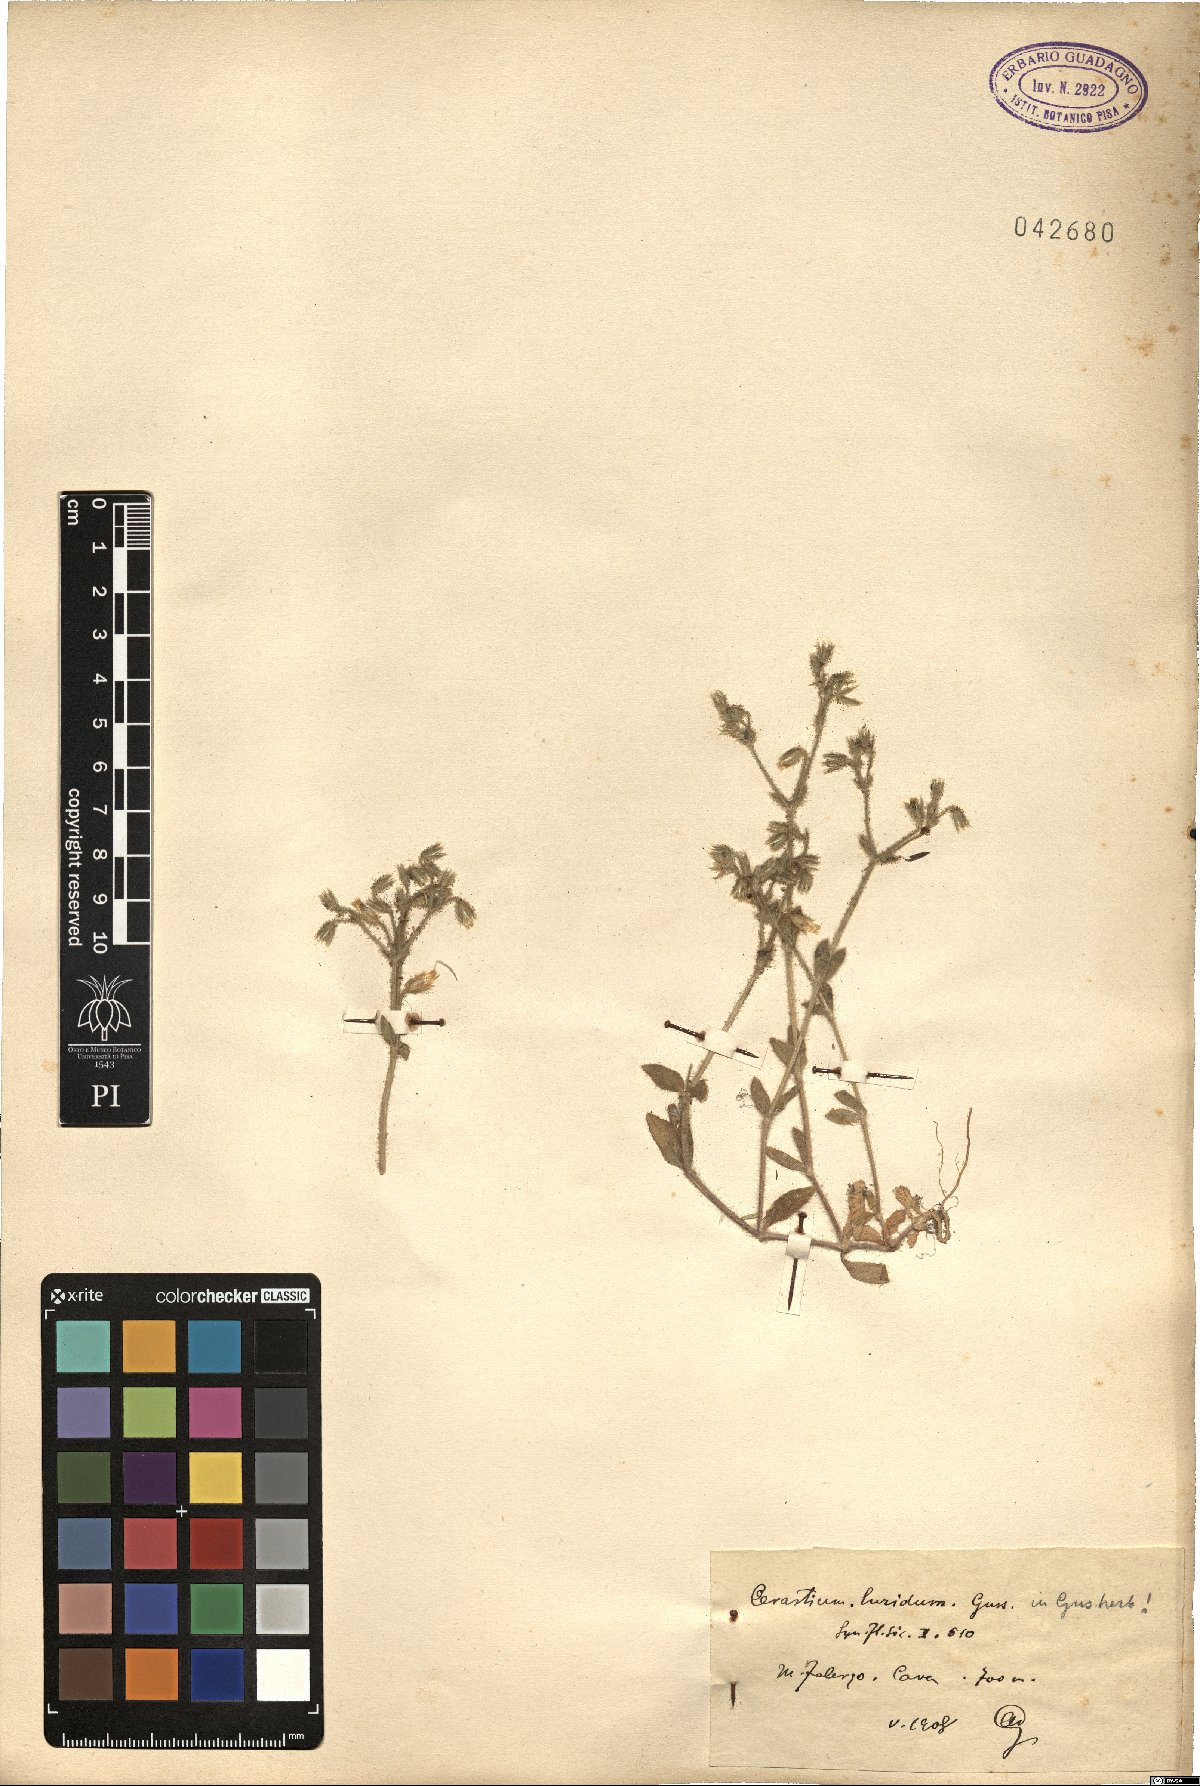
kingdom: Plantae
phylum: Tracheophyta
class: Magnoliopsida
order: Caryophyllales
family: Caryophyllaceae
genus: Cerastium
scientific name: Cerastium brachypetalum
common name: Grey mouse-ear
